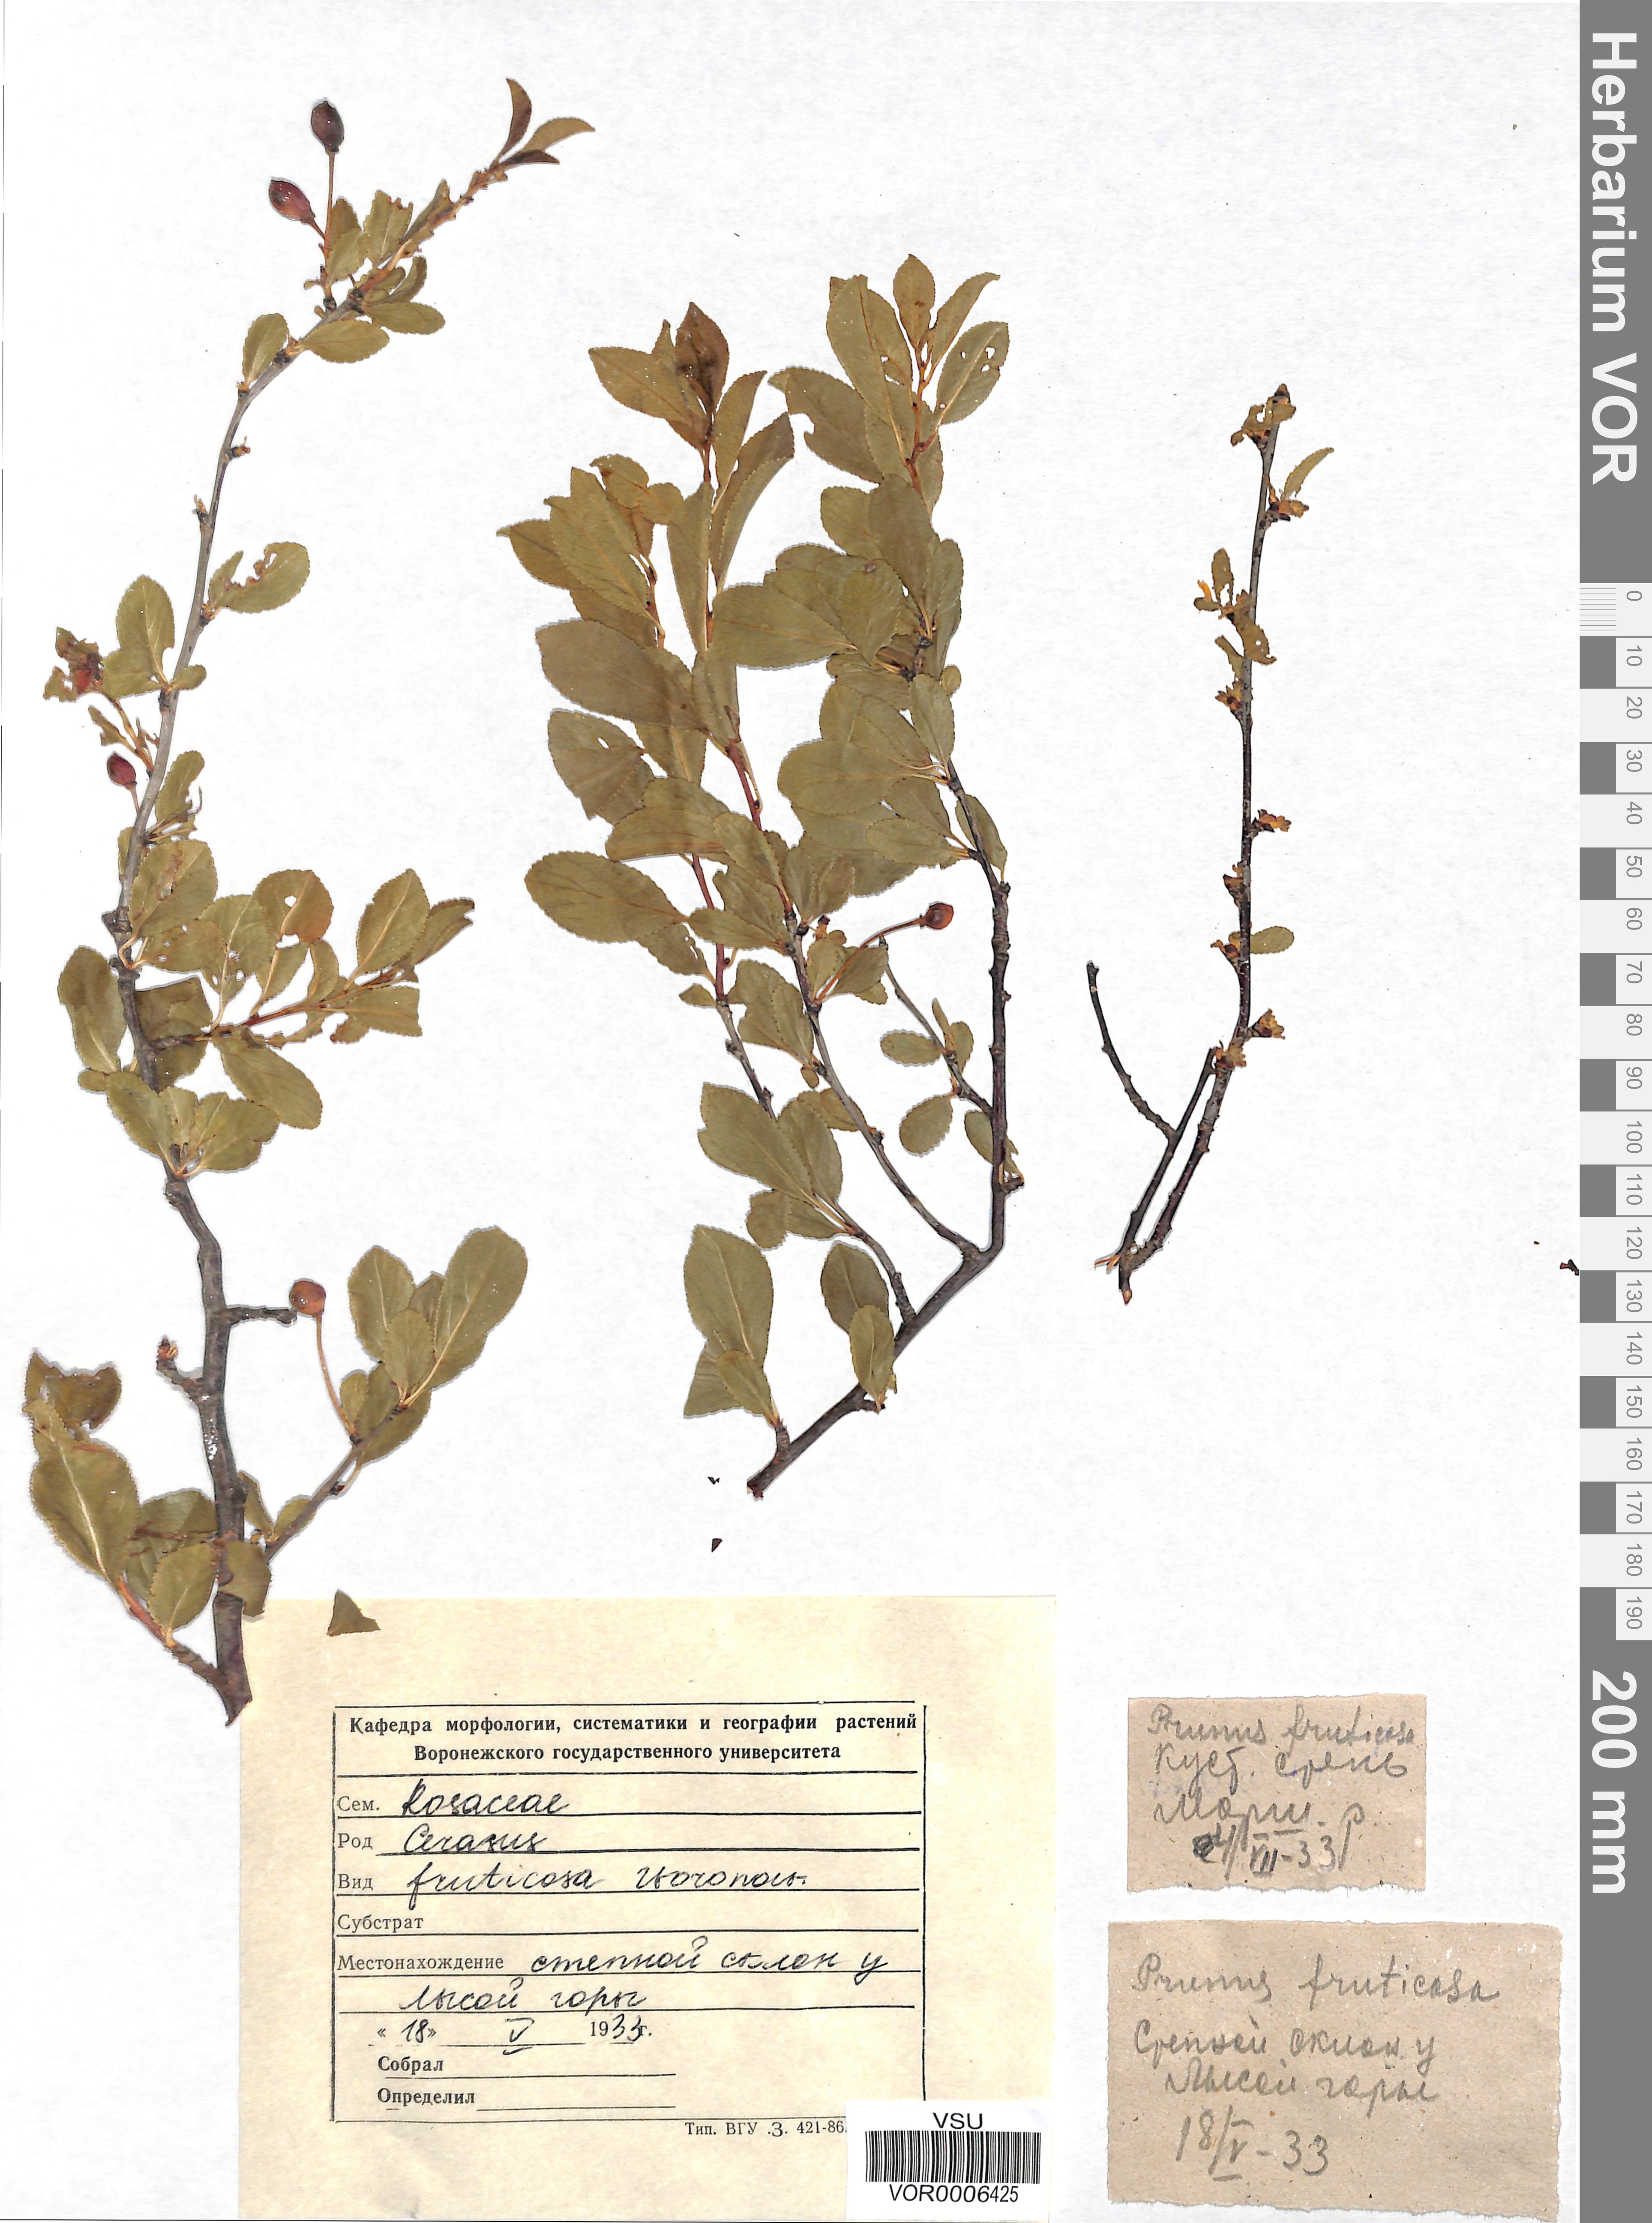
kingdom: Plantae
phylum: Tracheophyta
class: Magnoliopsida
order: Rosales
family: Rosaceae
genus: Prunus
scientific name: Prunus fruticosa
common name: European dwarf cherry
